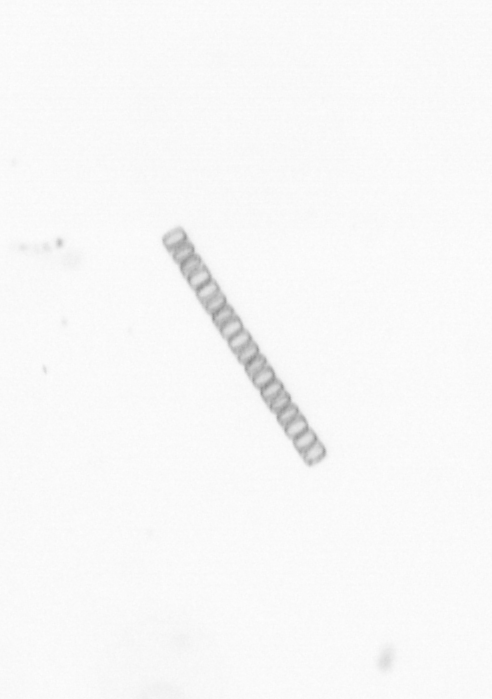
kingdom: Chromista
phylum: Ochrophyta
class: Bacillariophyceae
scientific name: Bacillariophyceae
